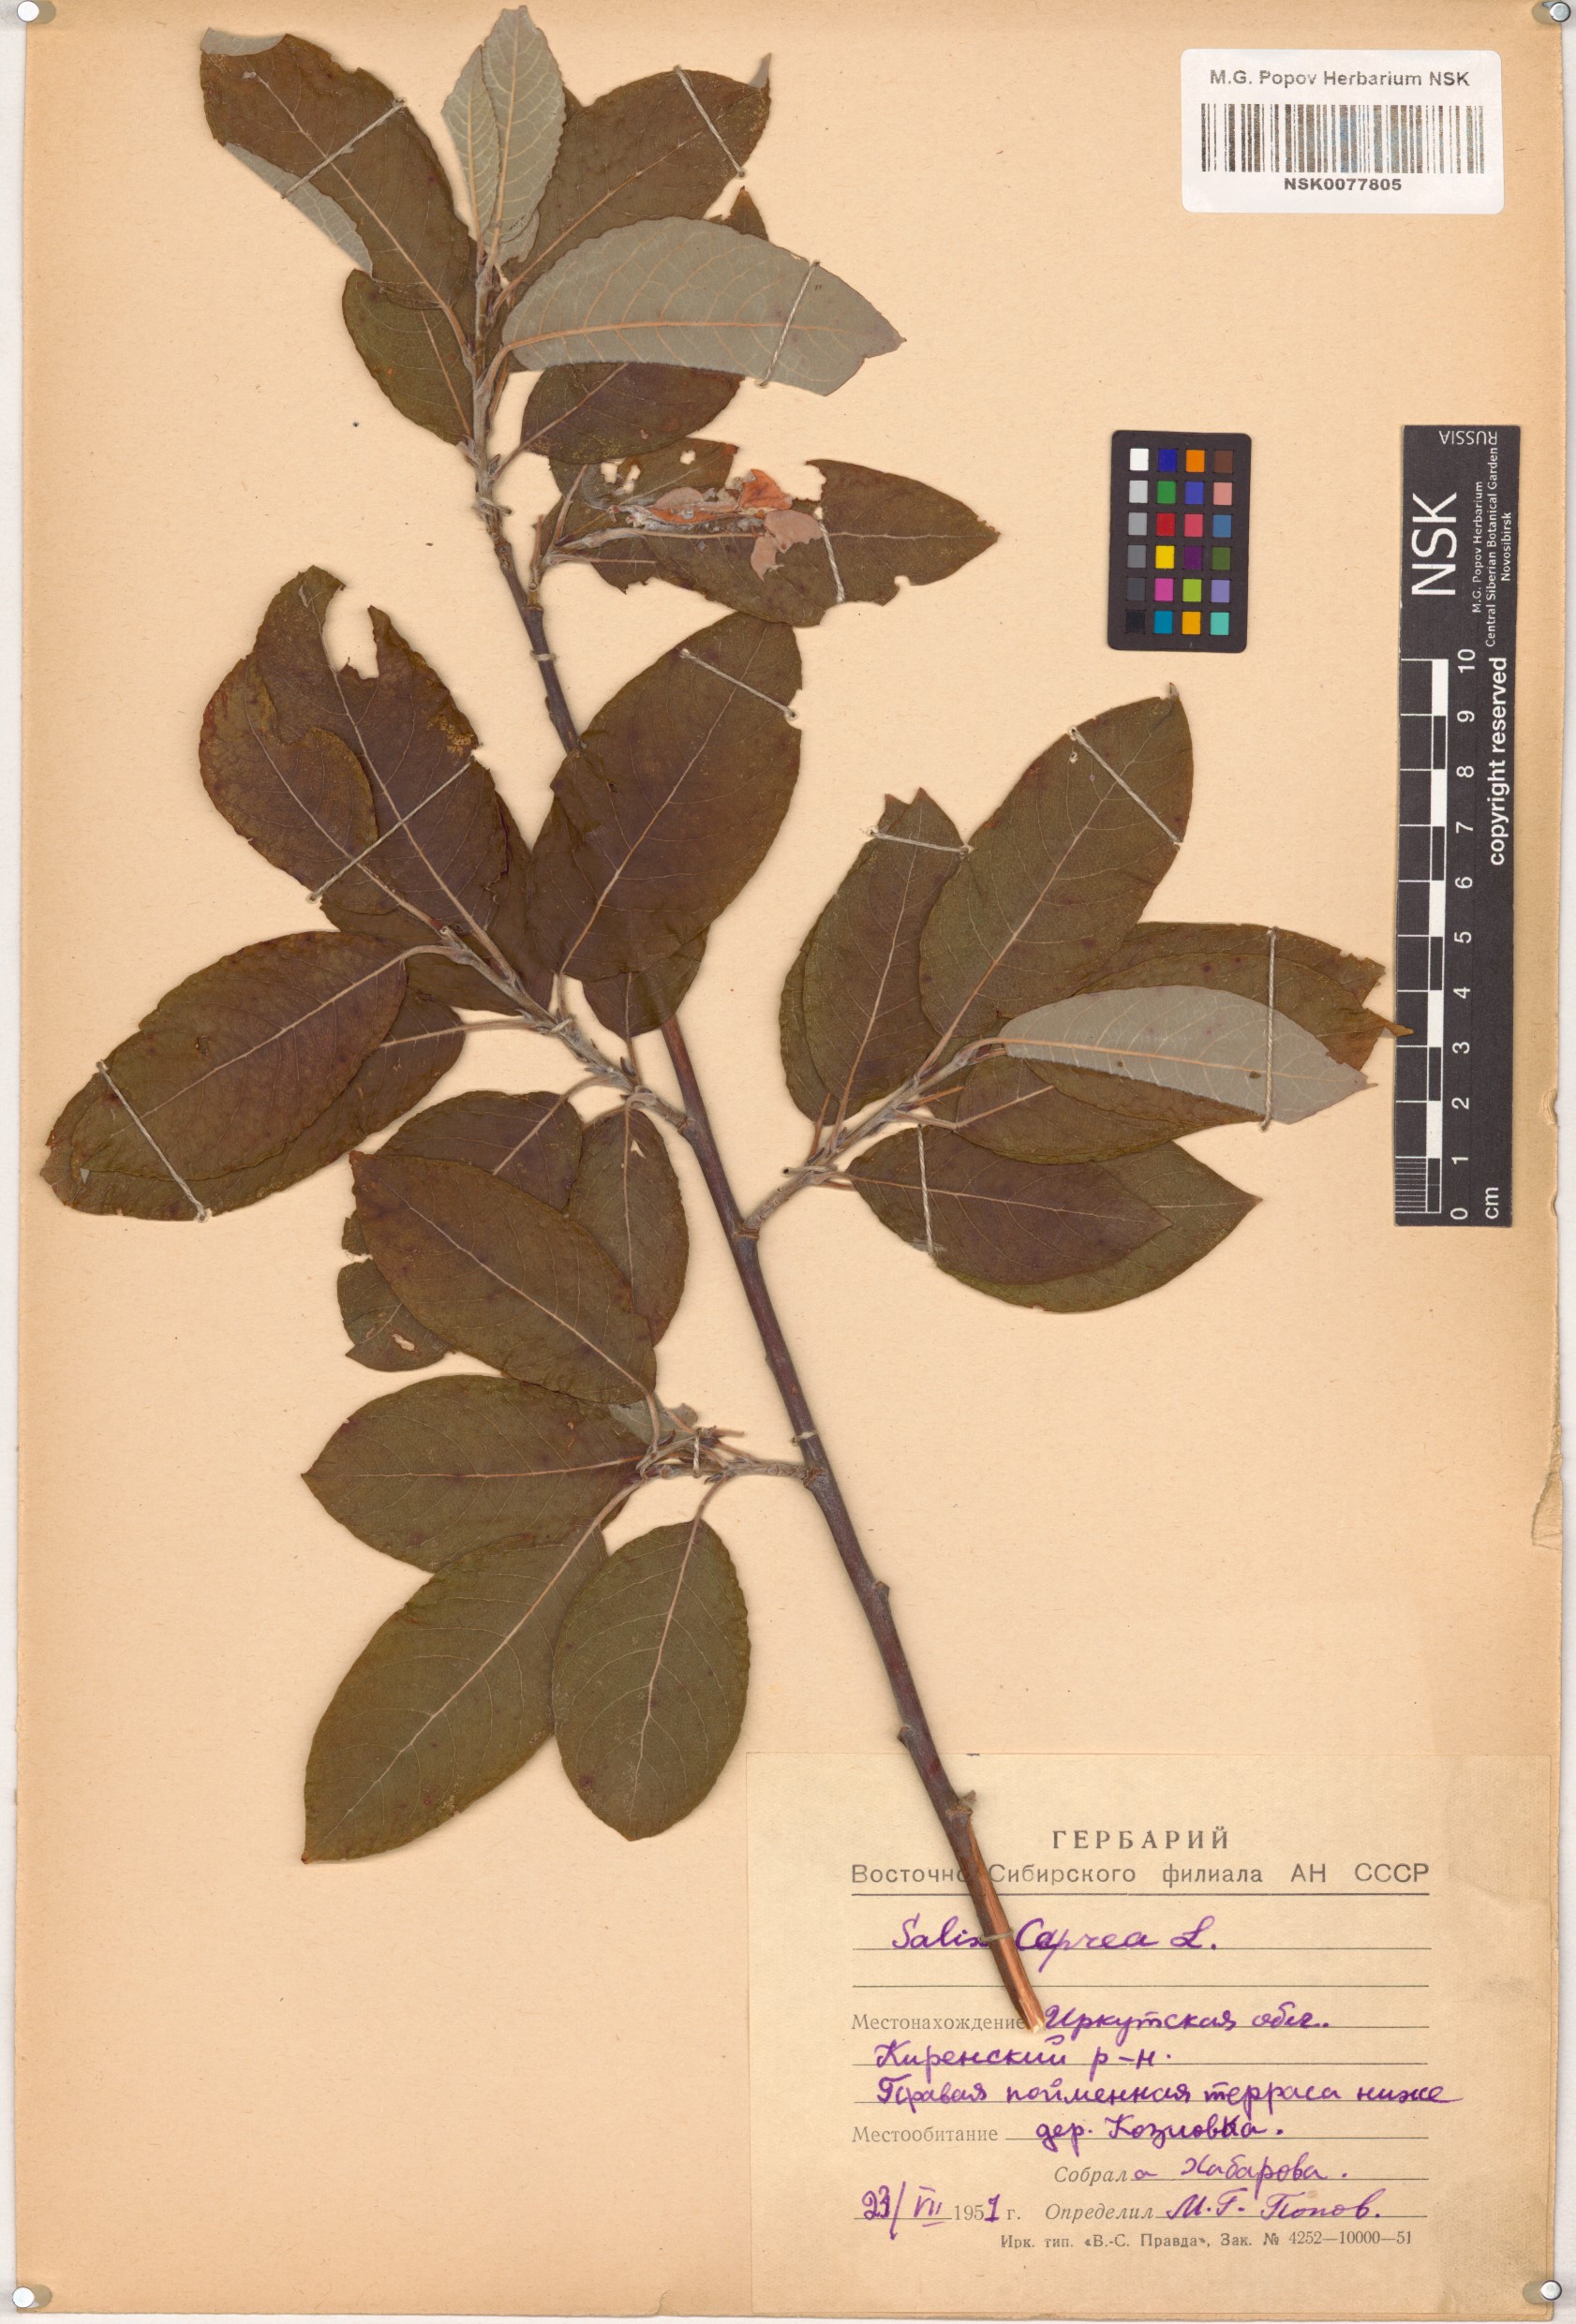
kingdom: Plantae
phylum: Tracheophyta
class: Magnoliopsida
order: Malpighiales
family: Salicaceae
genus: Salix
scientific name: Salix caprea
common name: Goat willow
